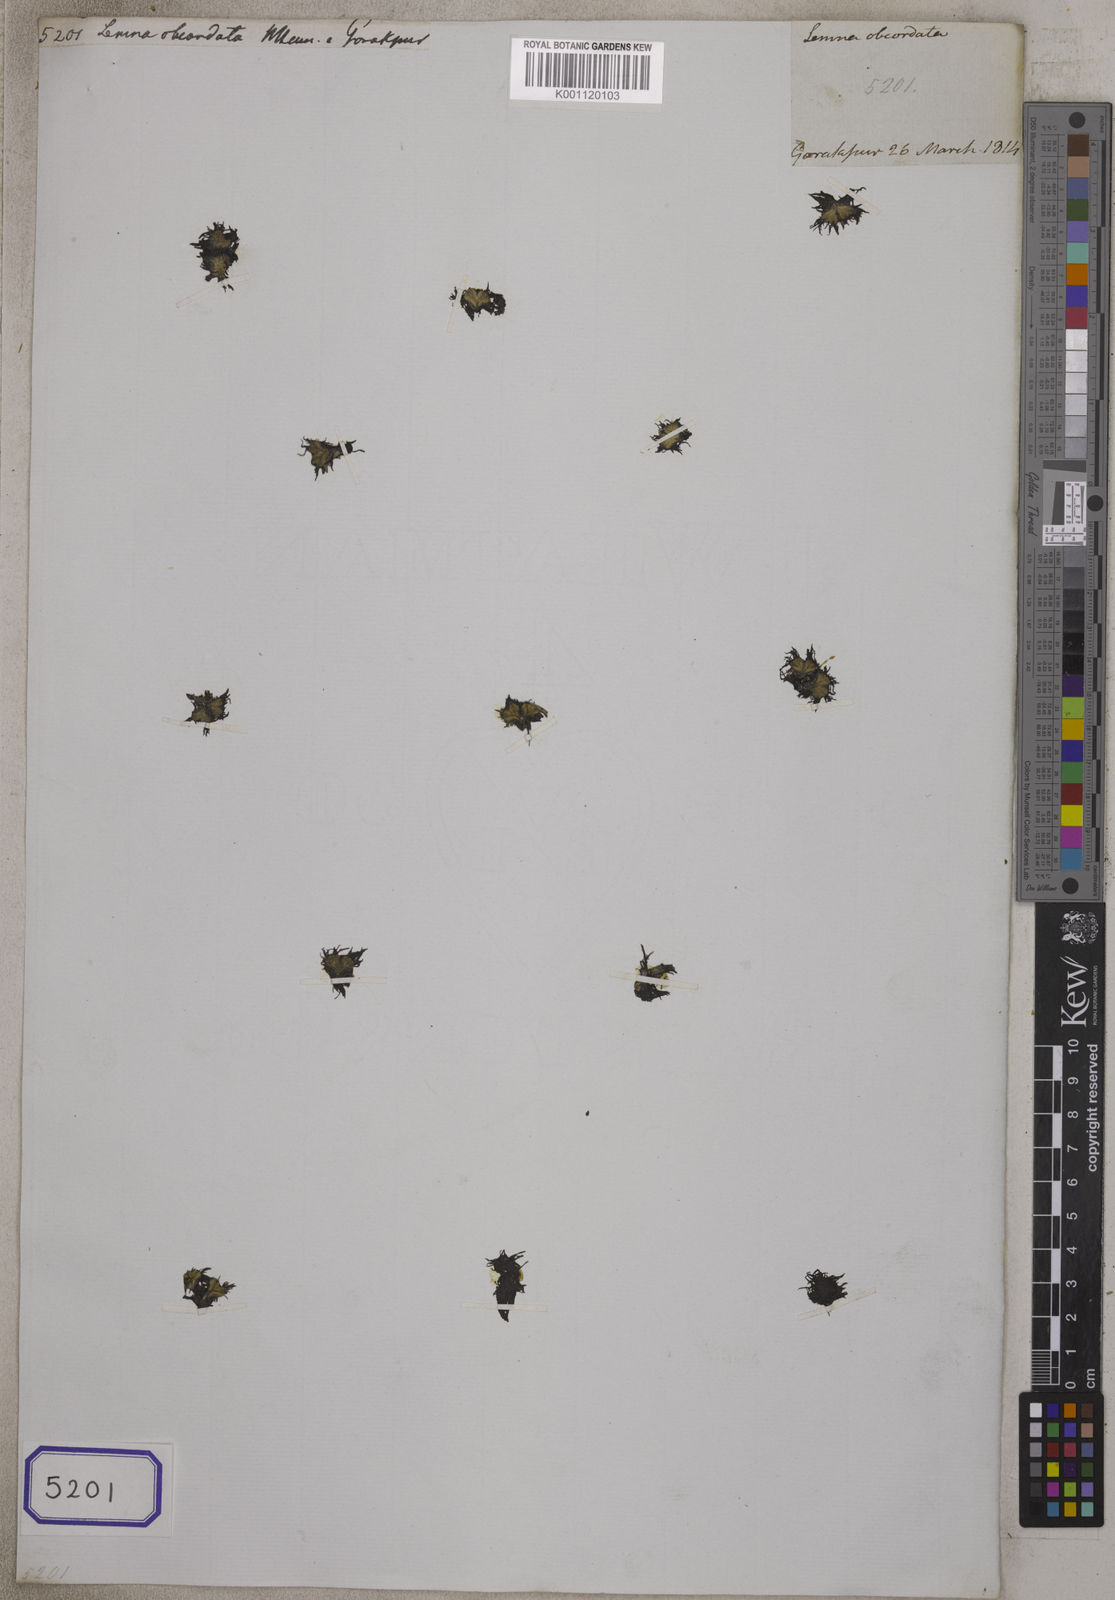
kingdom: Plantae
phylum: Tracheophyta
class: Liliopsida
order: Alismatales
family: Araceae
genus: Lemna
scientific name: Lemna
